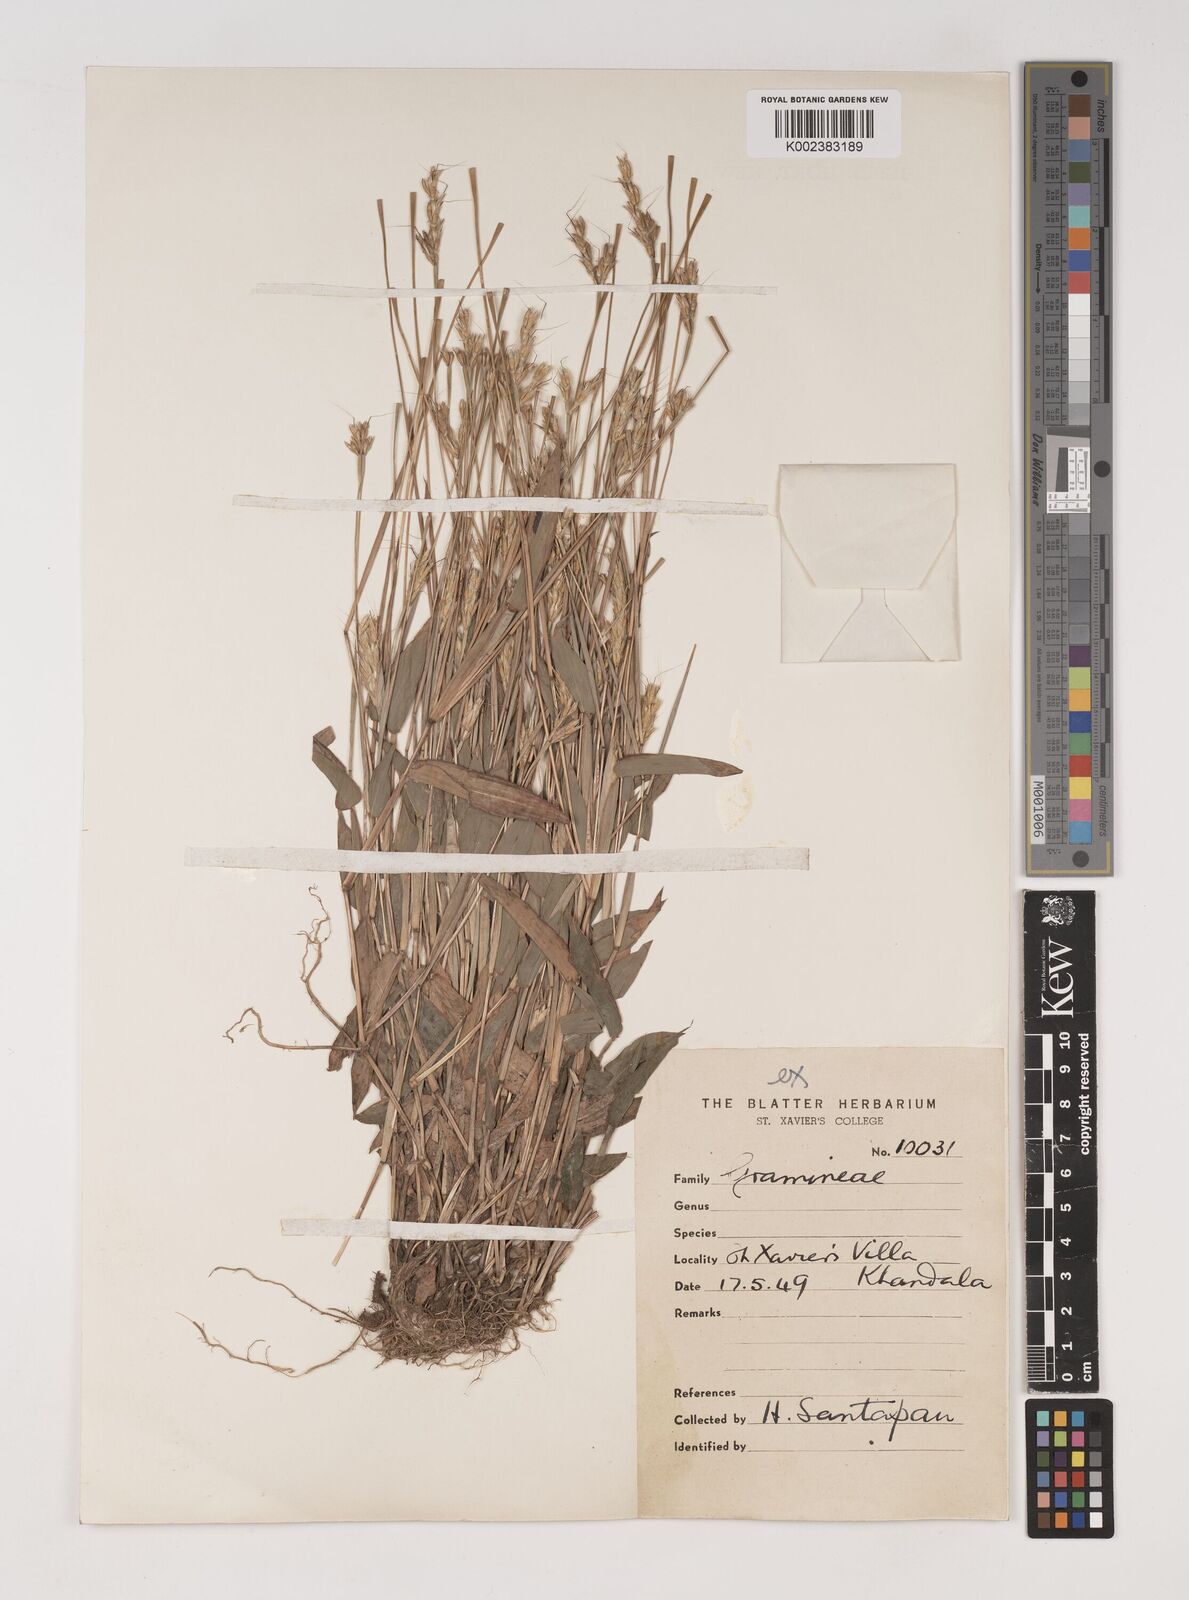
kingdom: Plantae
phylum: Tracheophyta
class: Liliopsida
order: Poales
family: Poaceae
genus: Ischaemum
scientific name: Ischaemum tumidum
